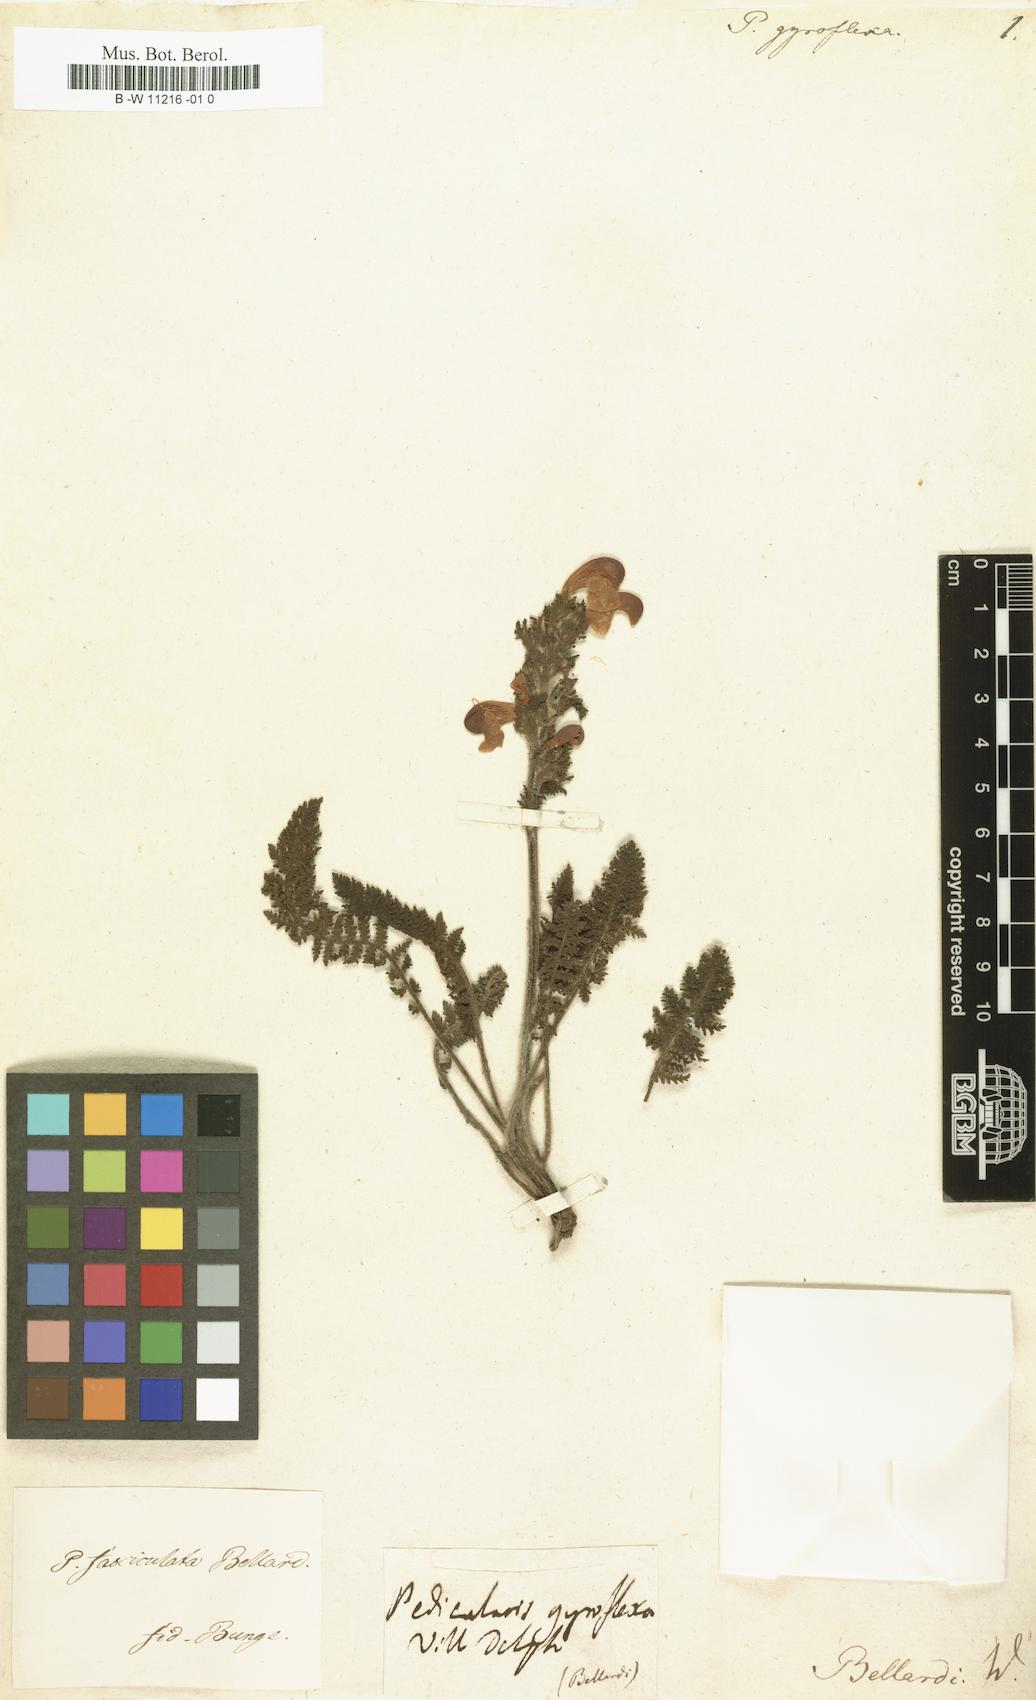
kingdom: Plantae
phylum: Tracheophyta
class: Magnoliopsida
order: Lamiales
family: Orobanchaceae
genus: Pedicularis
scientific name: Pedicularis gyroflexa
